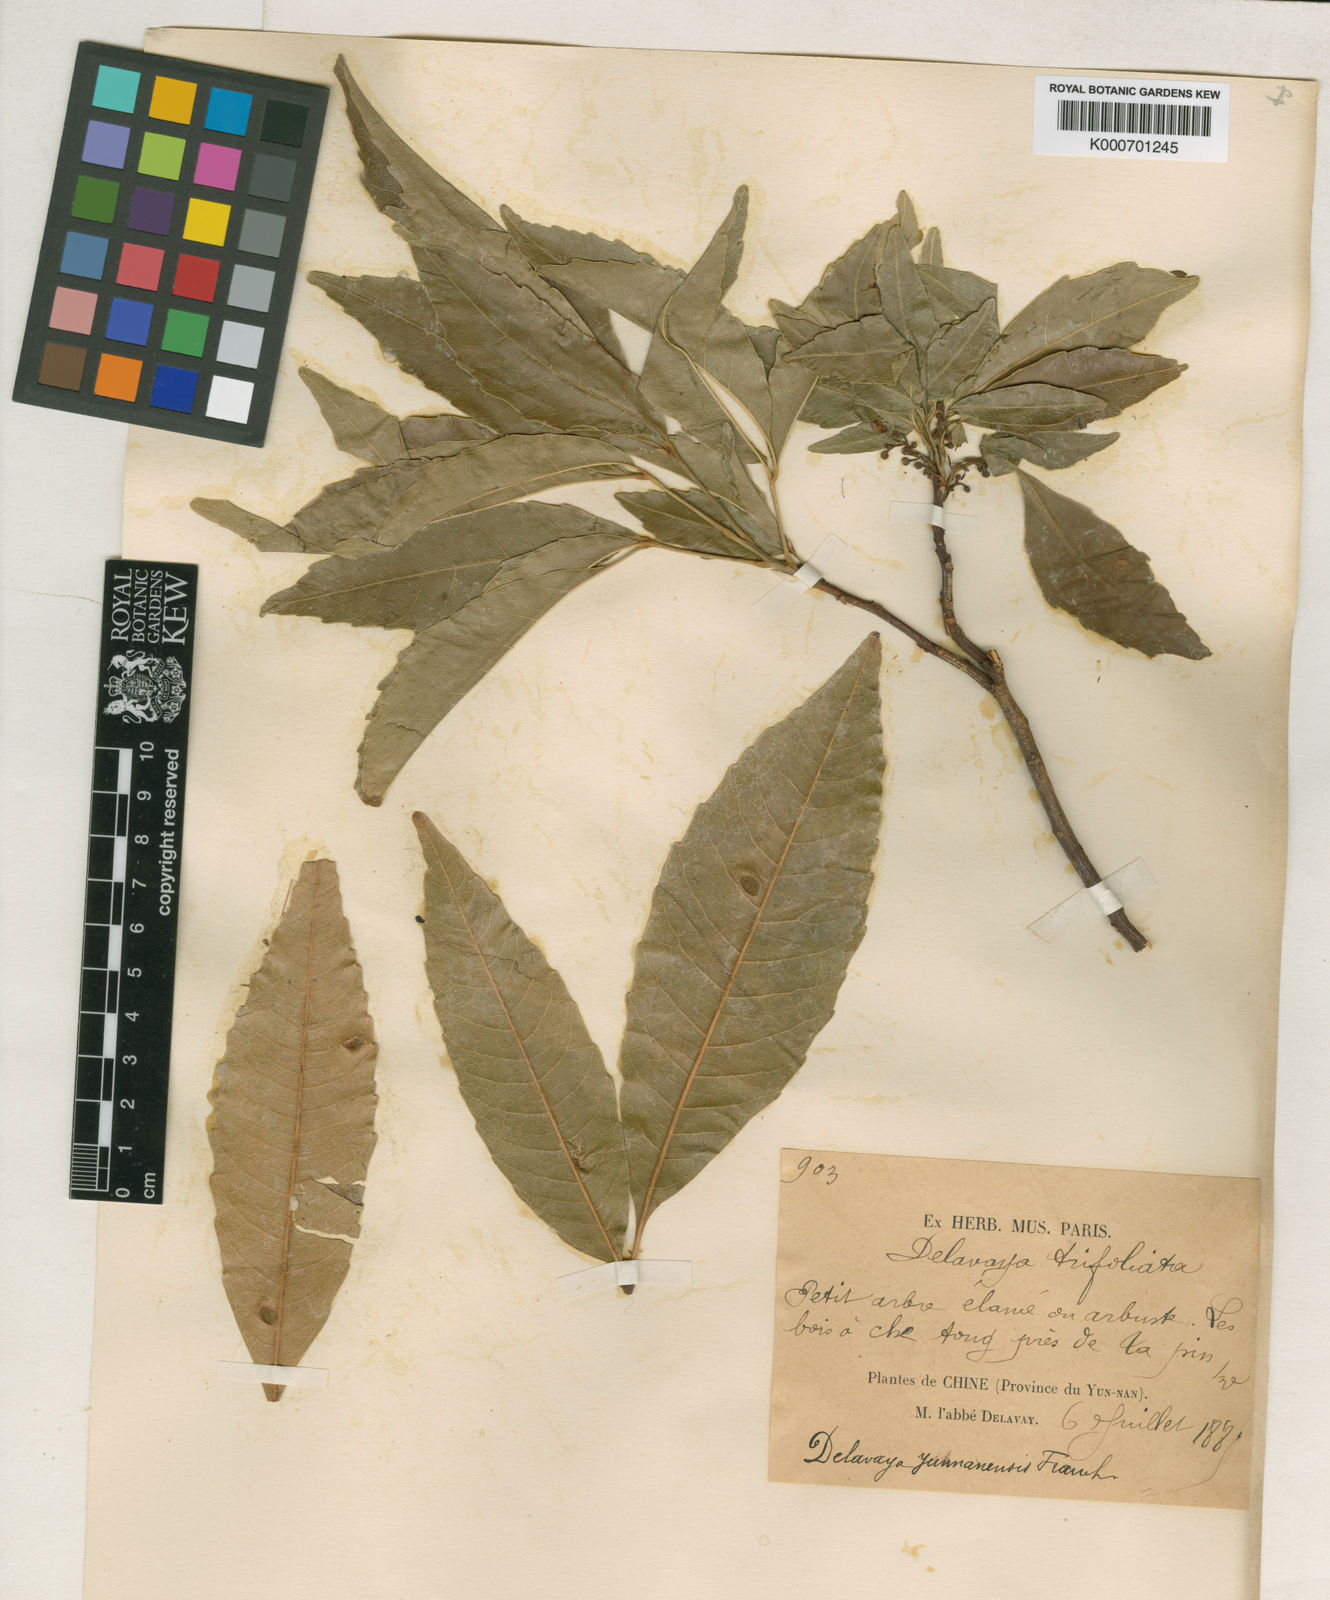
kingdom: Plantae
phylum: Tracheophyta
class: Magnoliopsida
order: Sapindales
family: Sapindaceae
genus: Delavaya
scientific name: Delavaya
